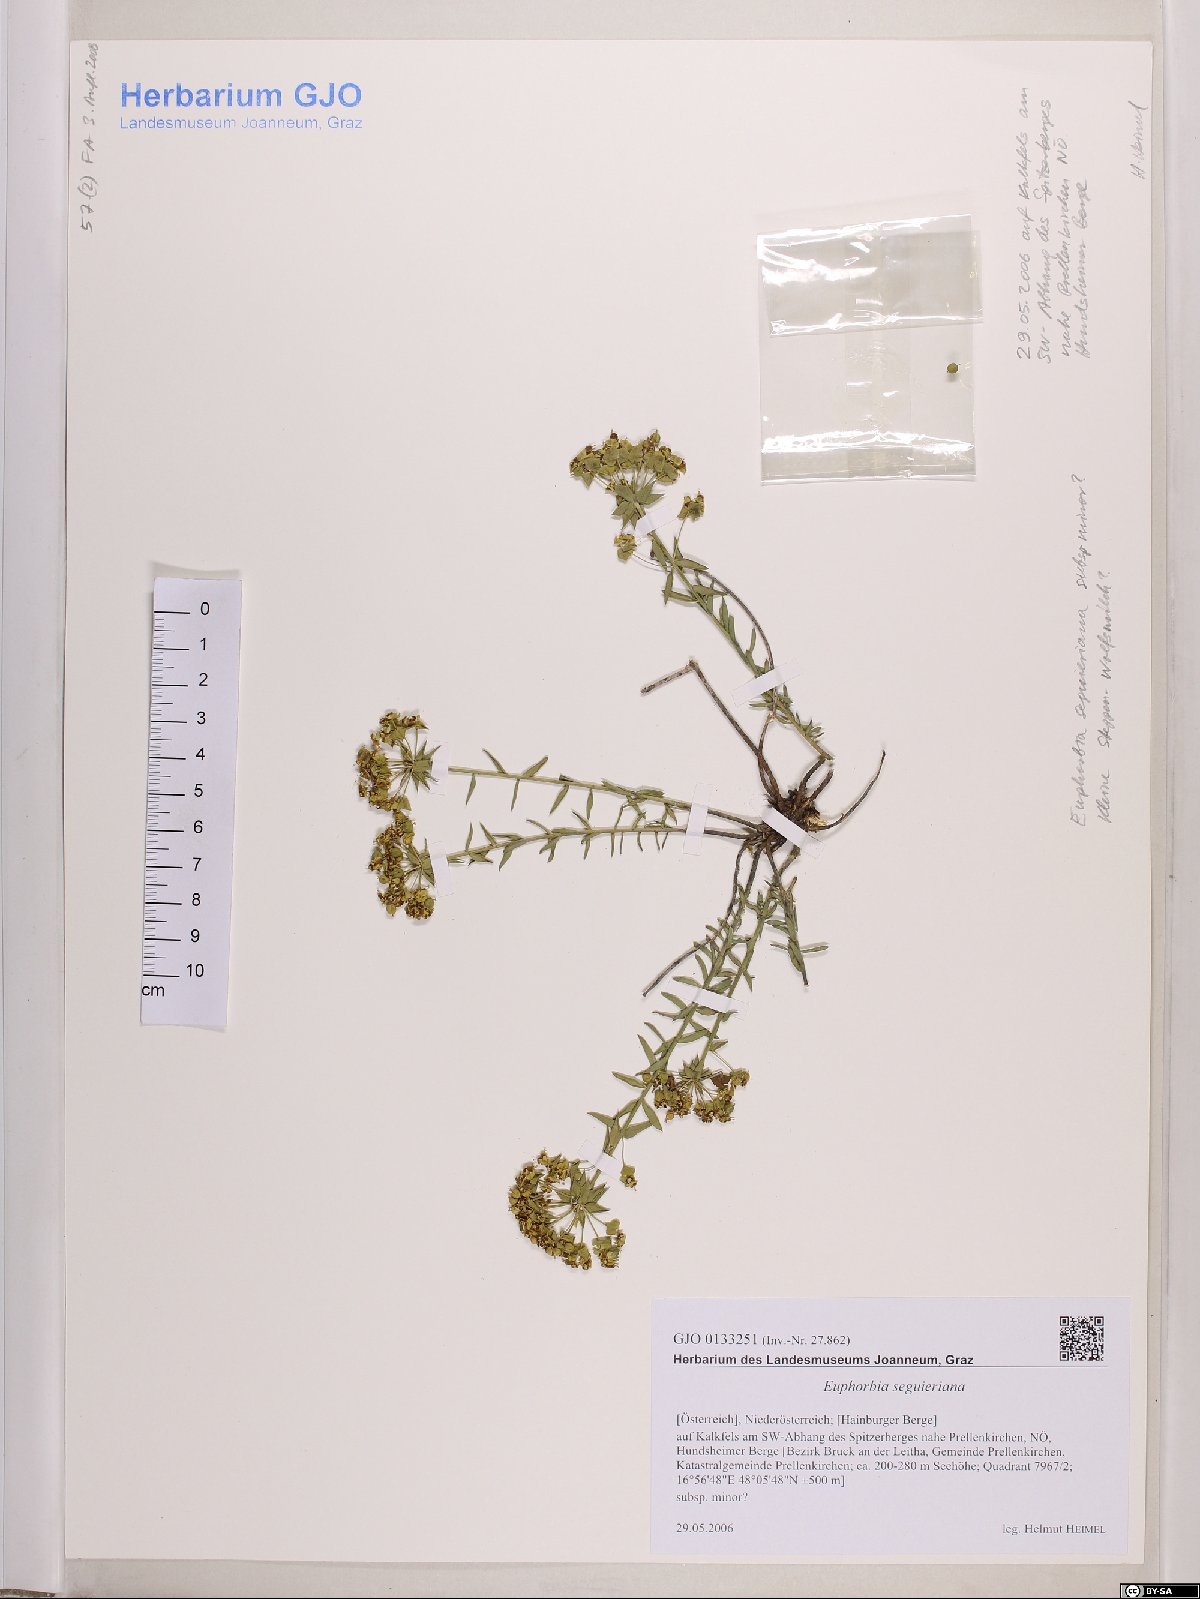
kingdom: Plantae
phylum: Tracheophyta
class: Magnoliopsida
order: Malpighiales
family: Euphorbiaceae
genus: Euphorbia
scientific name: Euphorbia seguieriana
